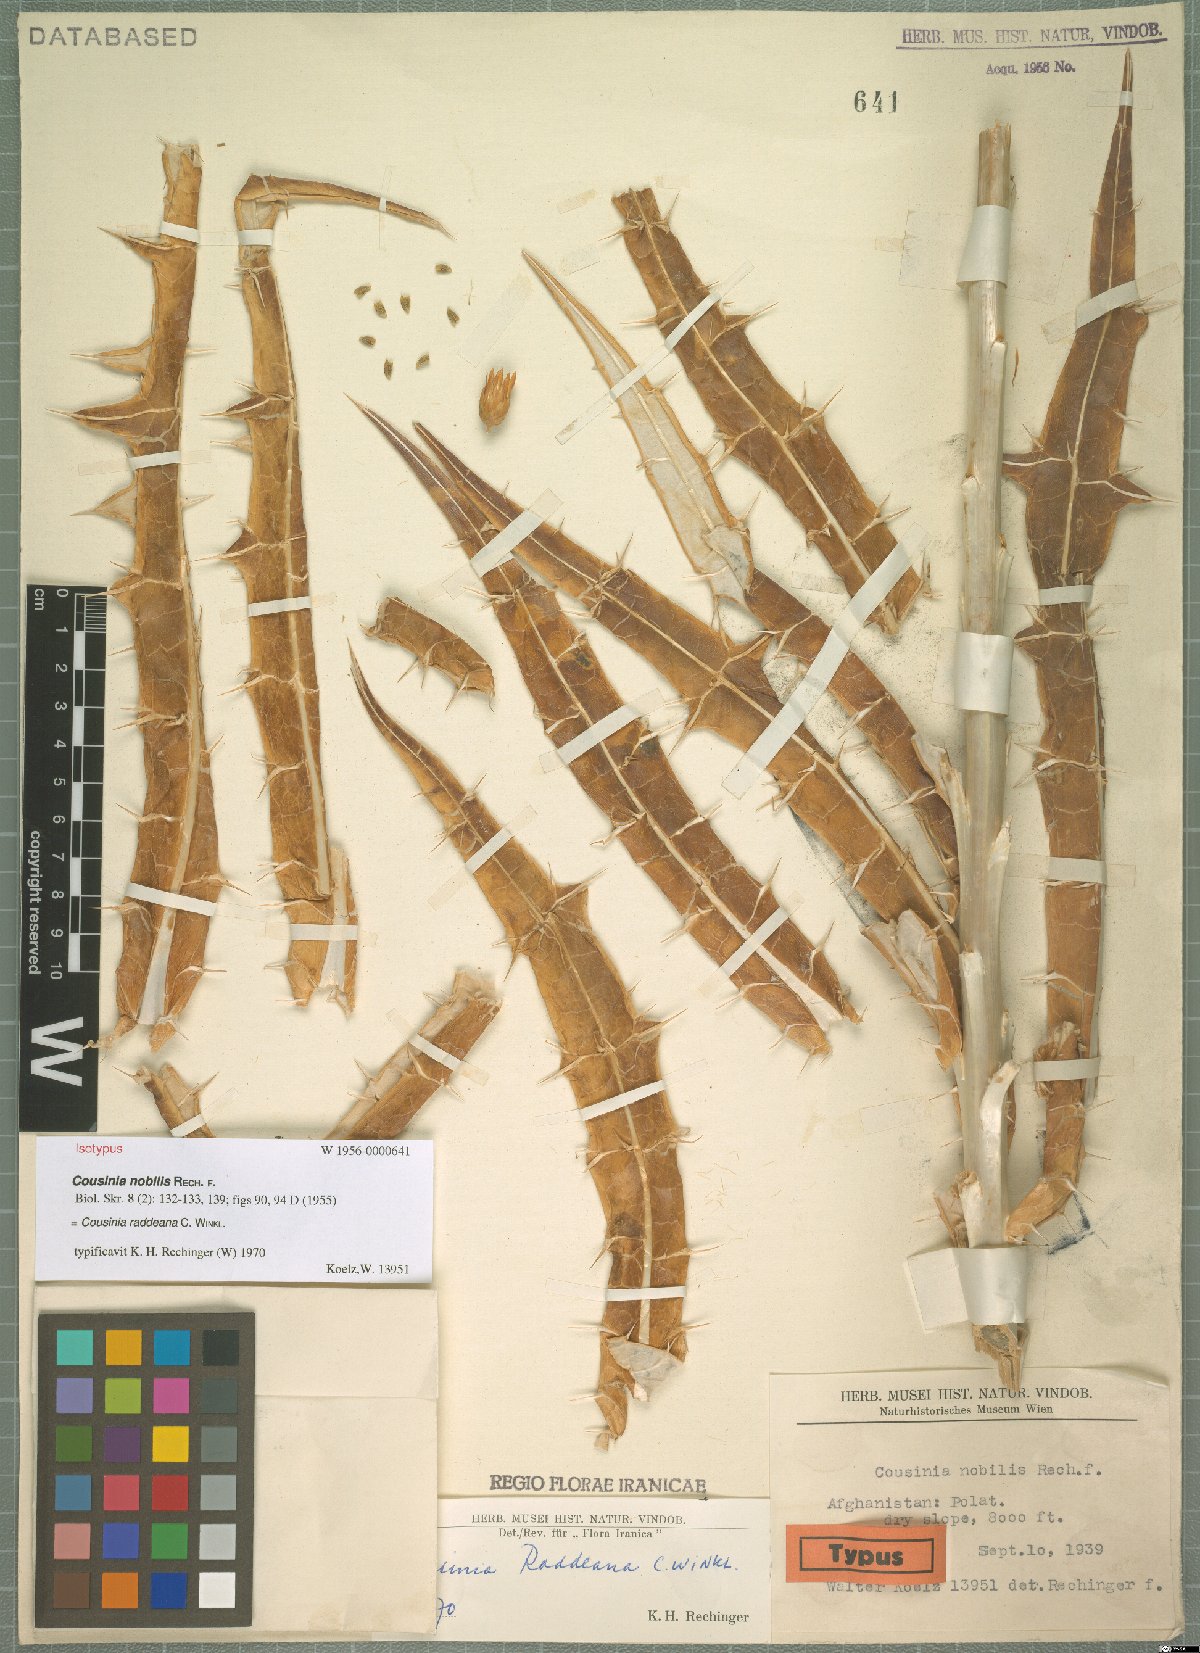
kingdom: Plantae
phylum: Tracheophyta
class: Magnoliopsida
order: Asterales
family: Asteraceae
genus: Cousinia
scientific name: Cousinia raddeana
